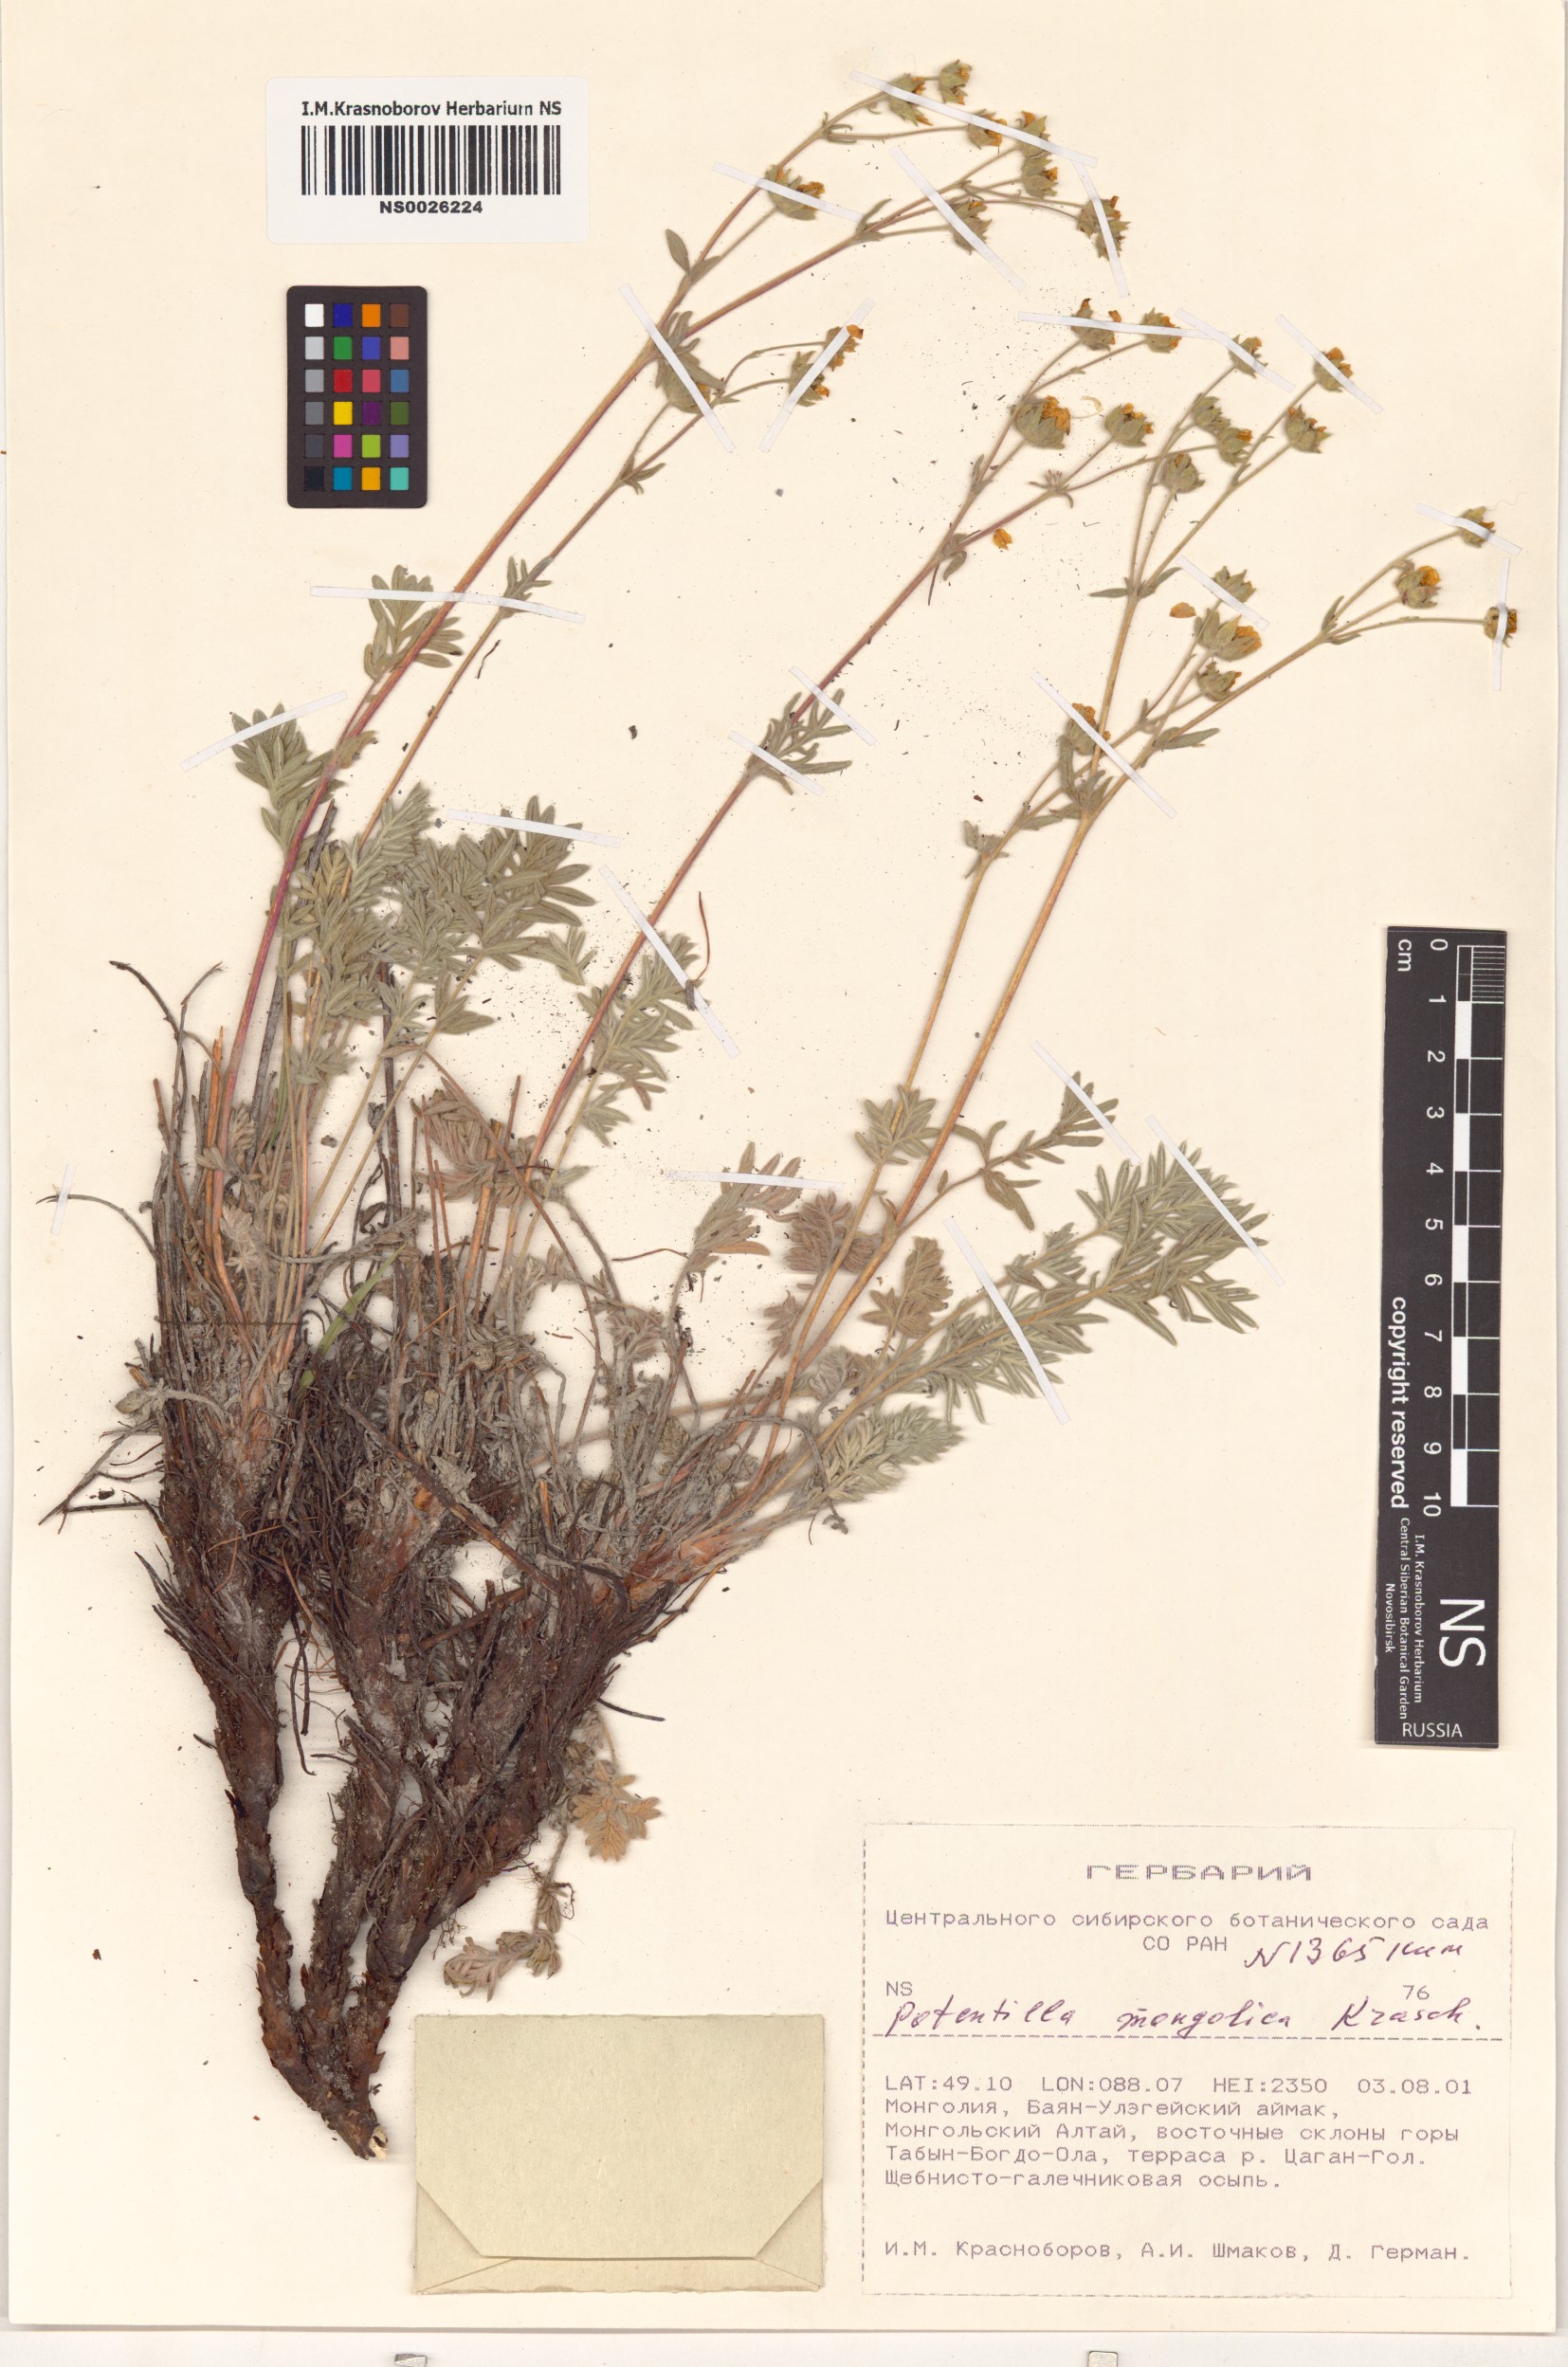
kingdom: Plantae
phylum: Tracheophyta
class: Magnoliopsida
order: Rosales
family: Rosaceae
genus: Potentilla
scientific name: Potentilla mongolica
